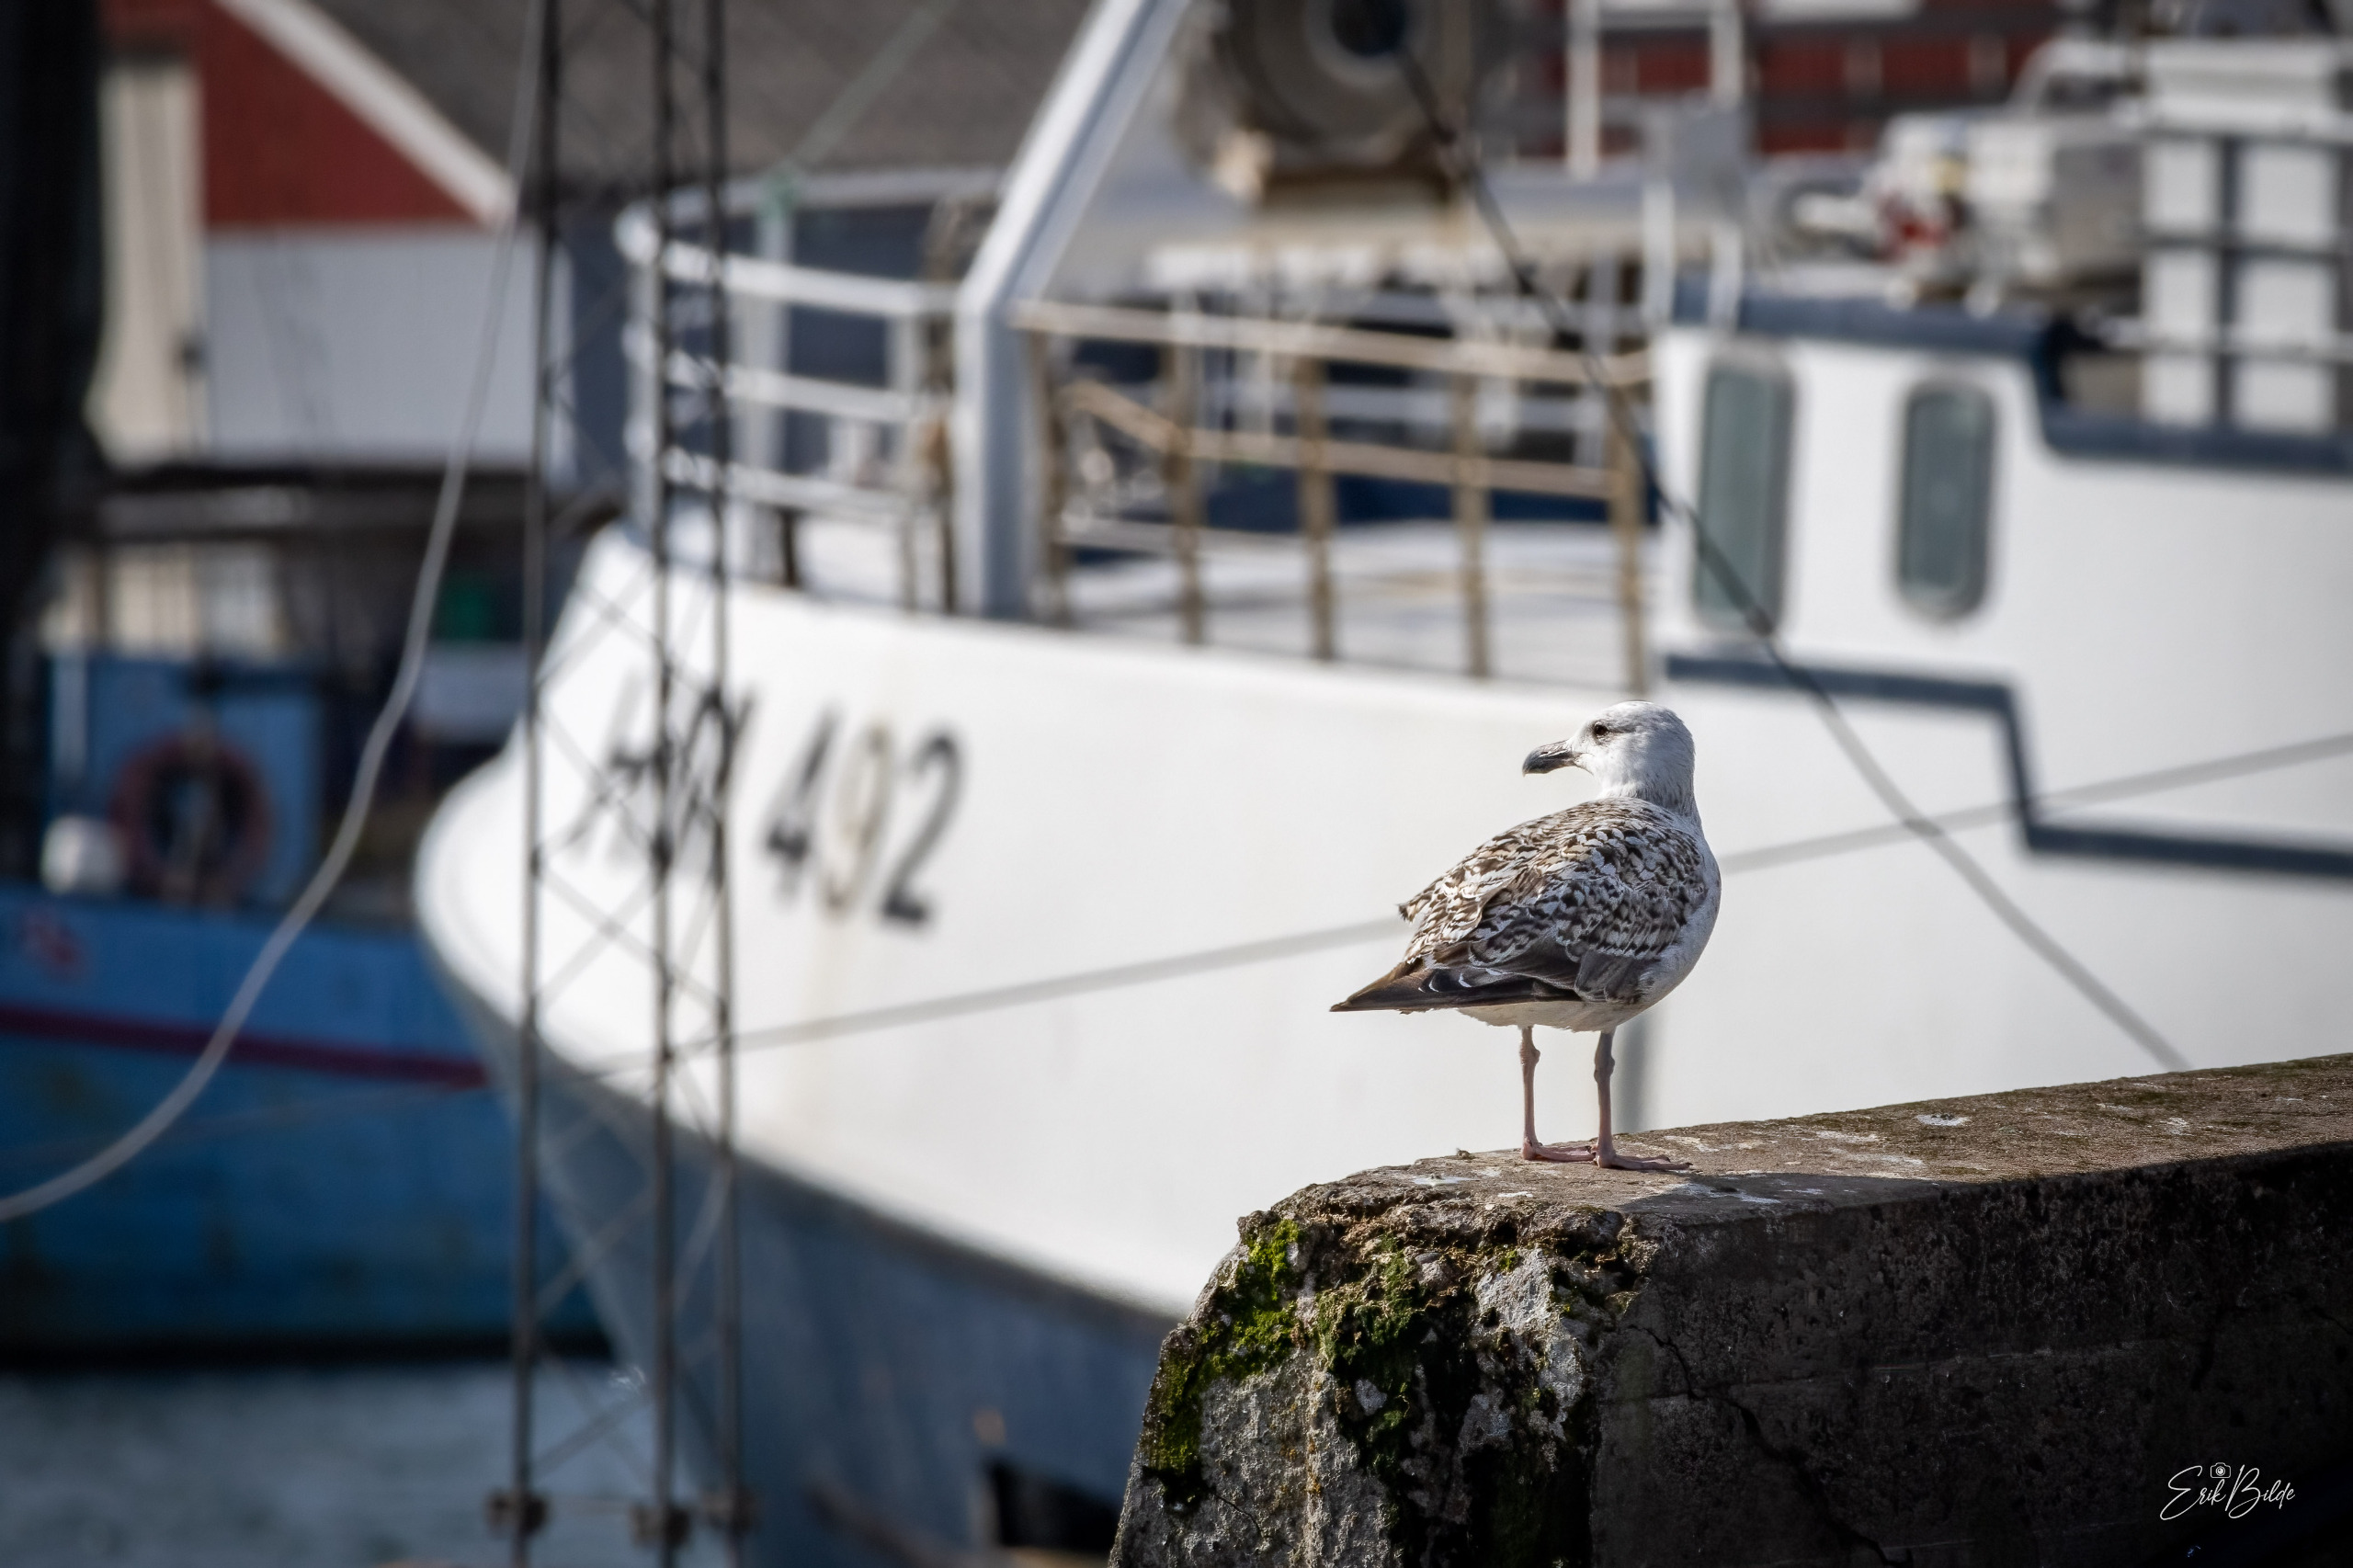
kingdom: Animalia
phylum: Chordata
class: Aves
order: Charadriiformes
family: Laridae
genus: Larus
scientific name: Larus marinus
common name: Svartbag
